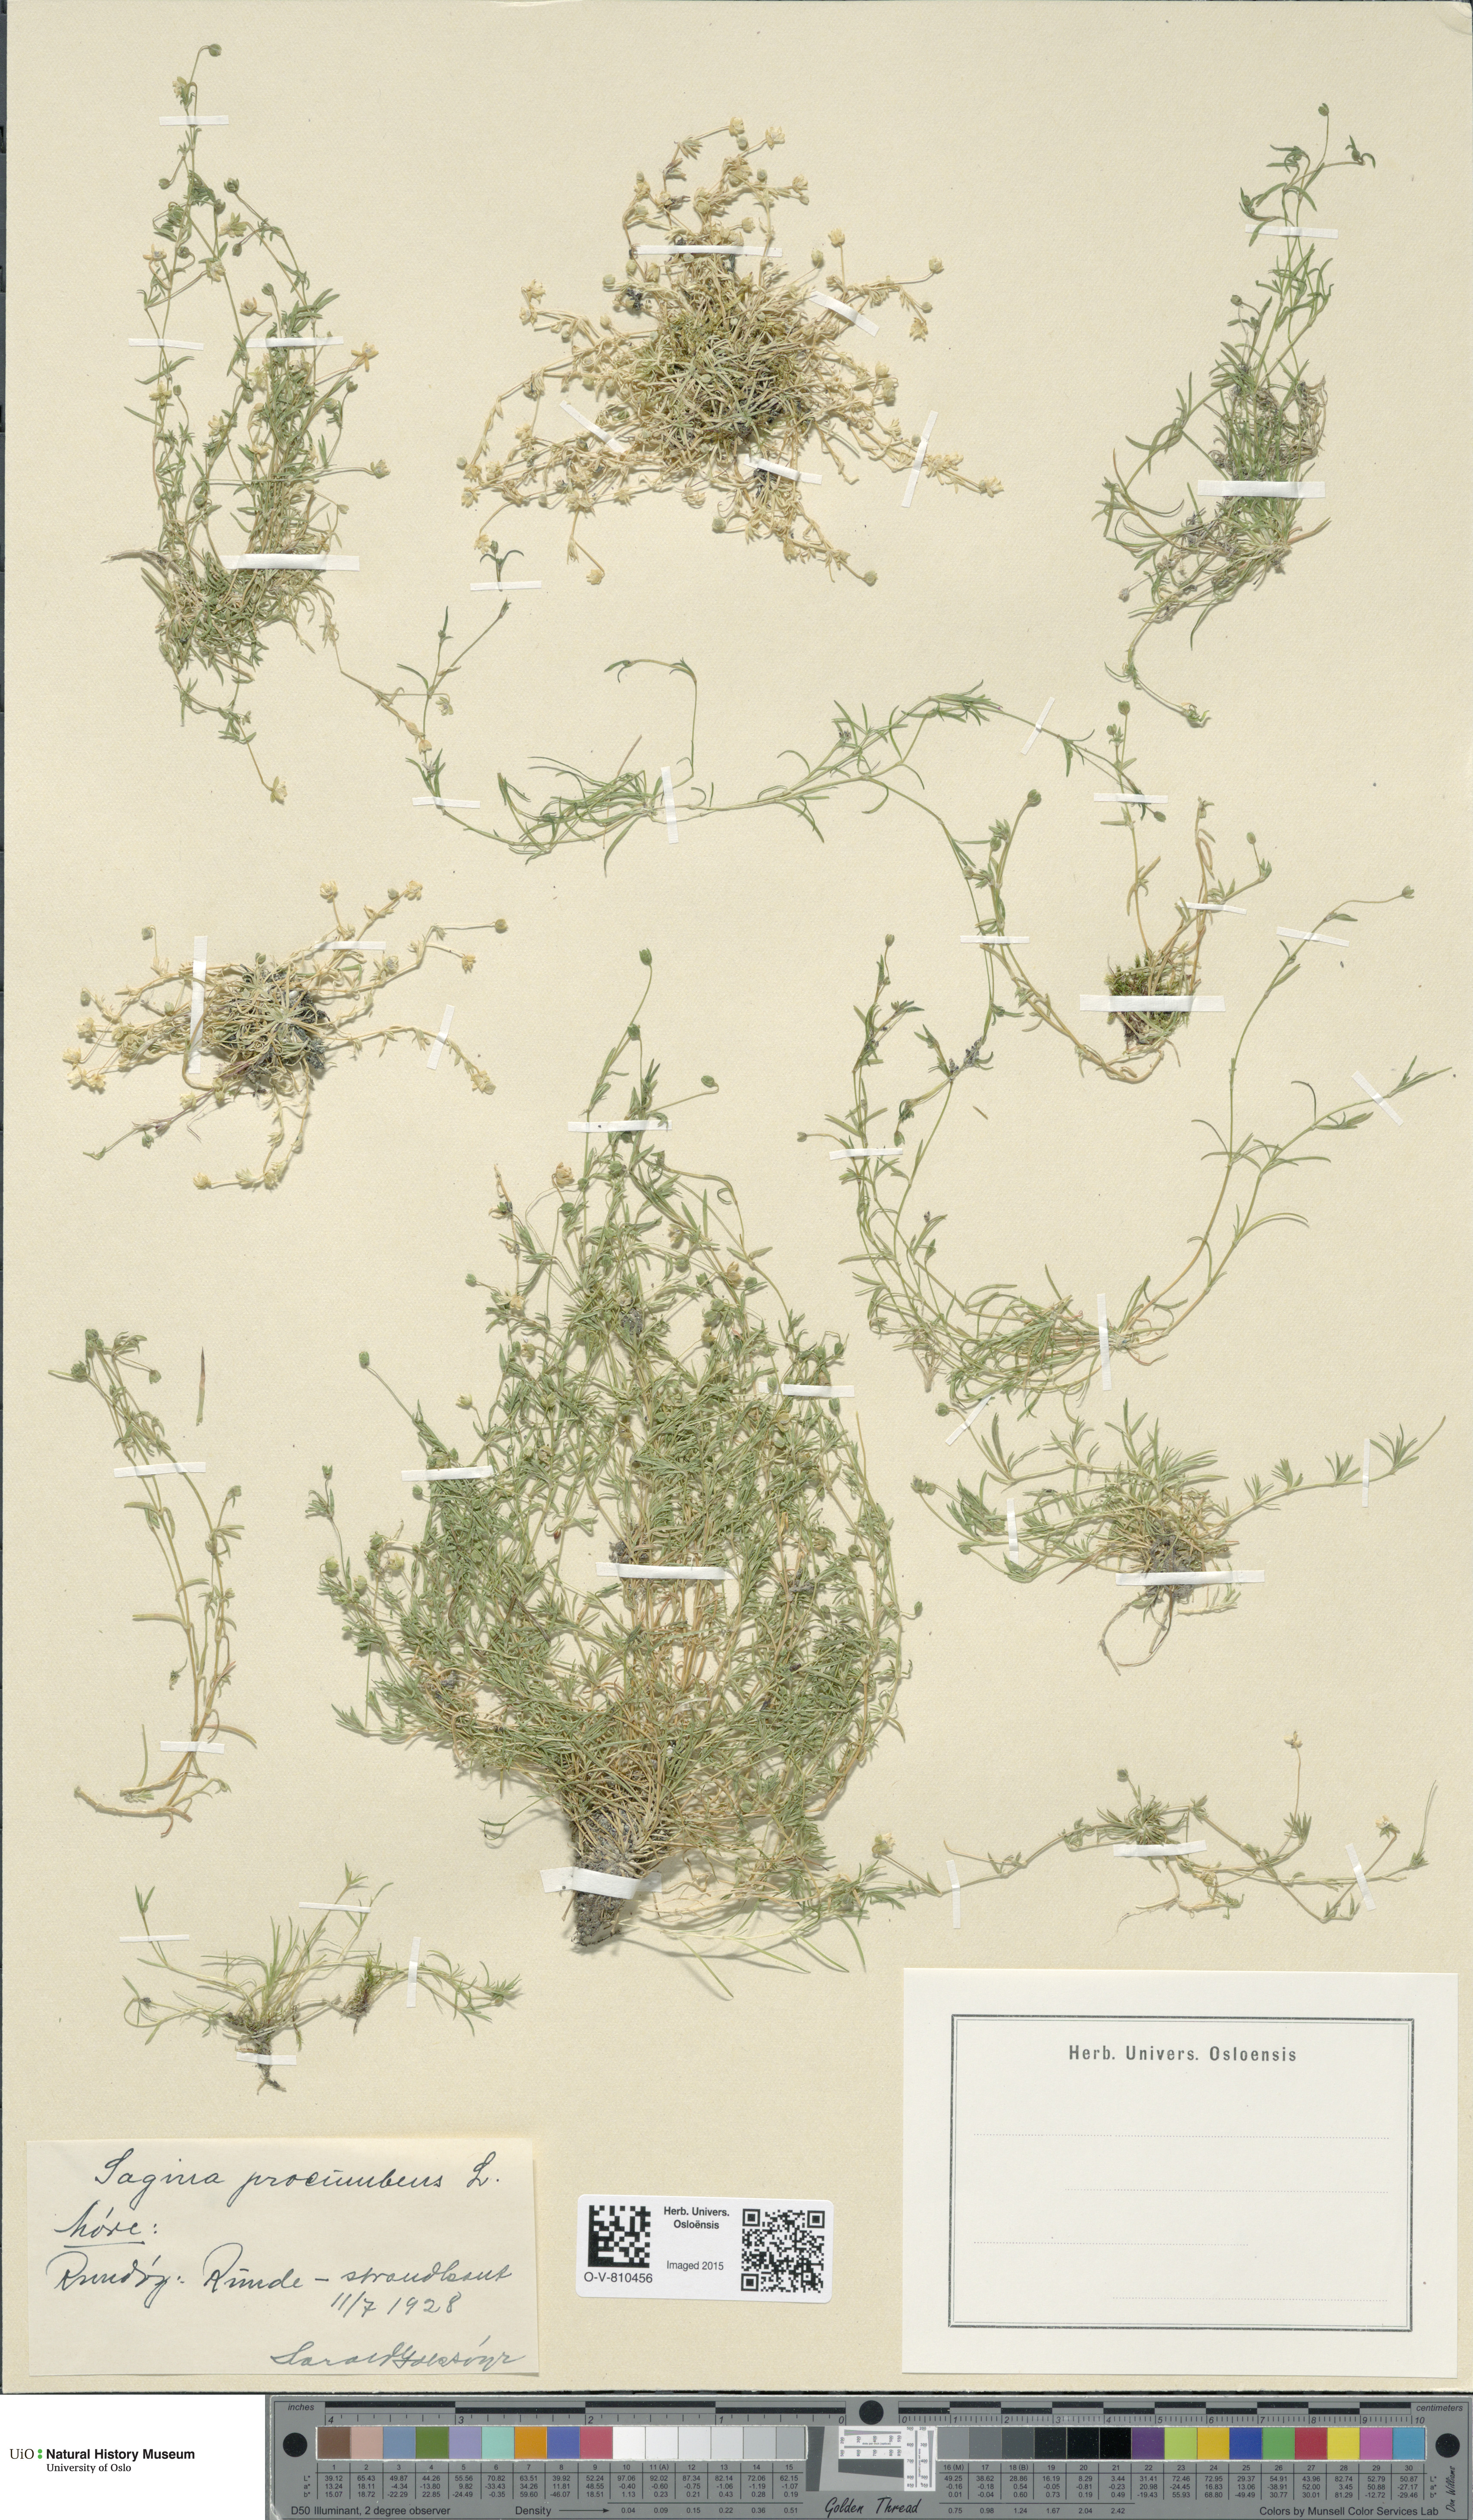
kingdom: Plantae
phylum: Tracheophyta
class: Magnoliopsida
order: Caryophyllales
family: Caryophyllaceae
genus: Sagina
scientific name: Sagina procumbens
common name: Procumbent pearlwort
